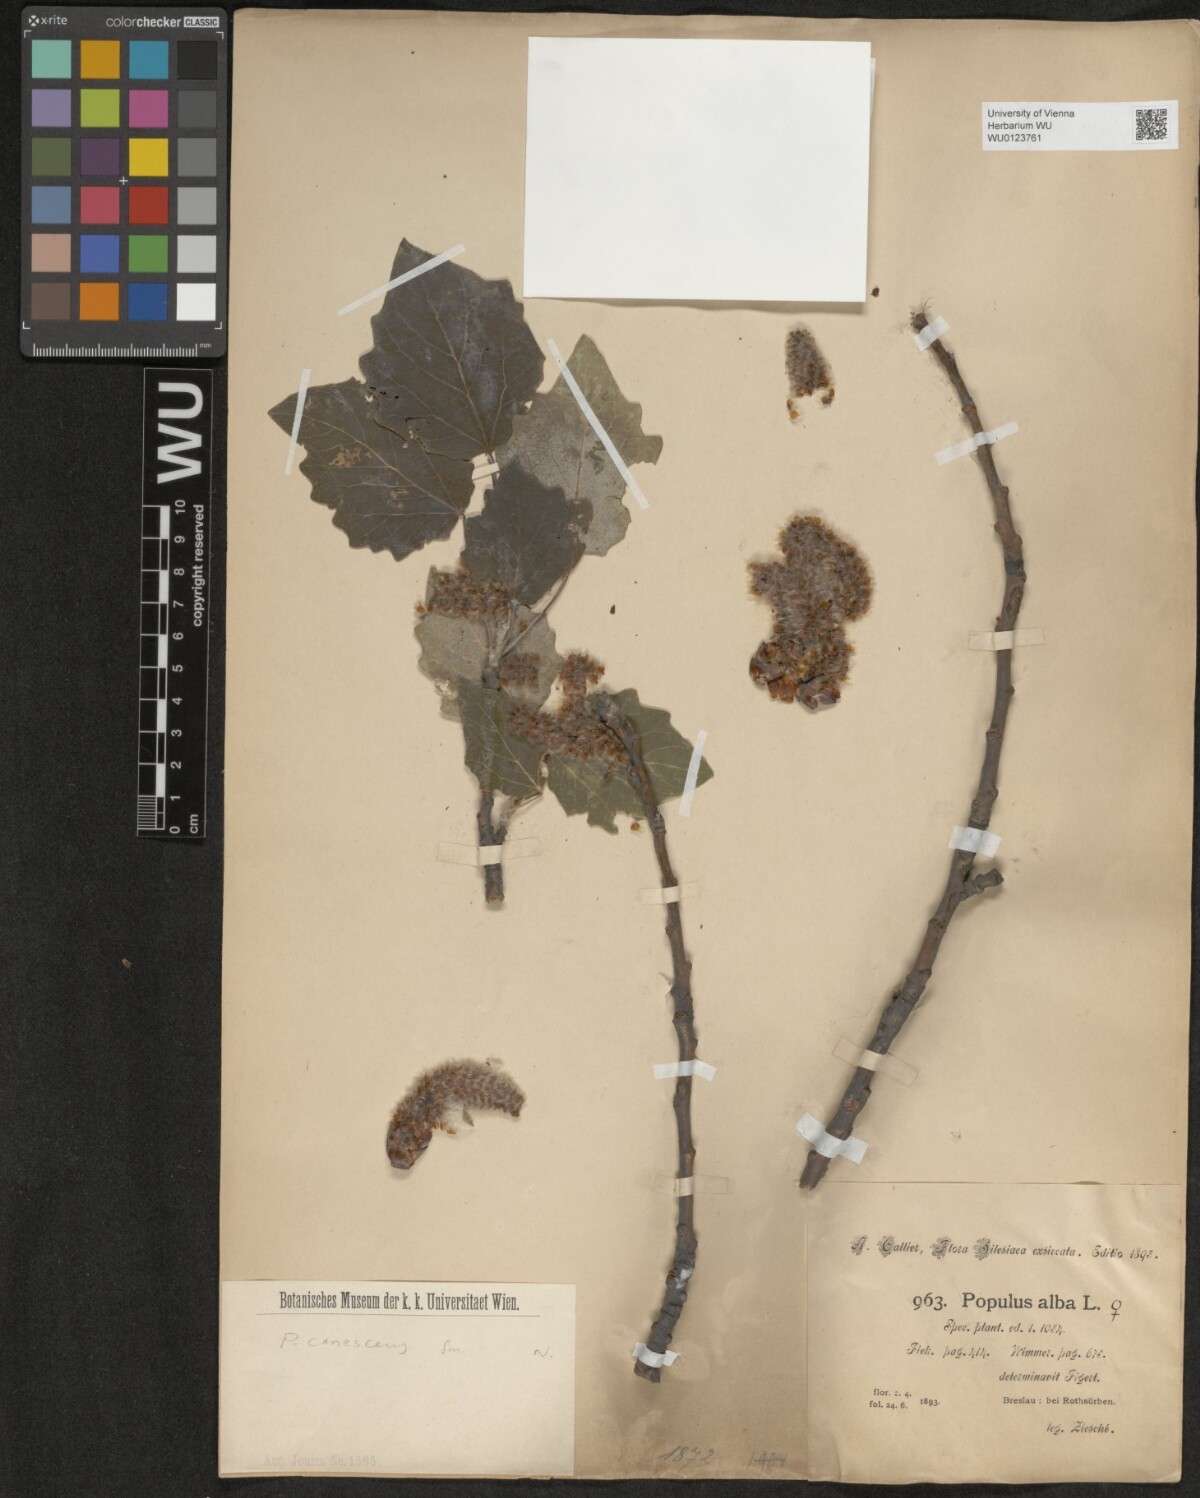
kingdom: Plantae
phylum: Tracheophyta
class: Magnoliopsida
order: Malpighiales
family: Salicaceae
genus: Populus
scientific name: Populus alba
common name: White poplar
